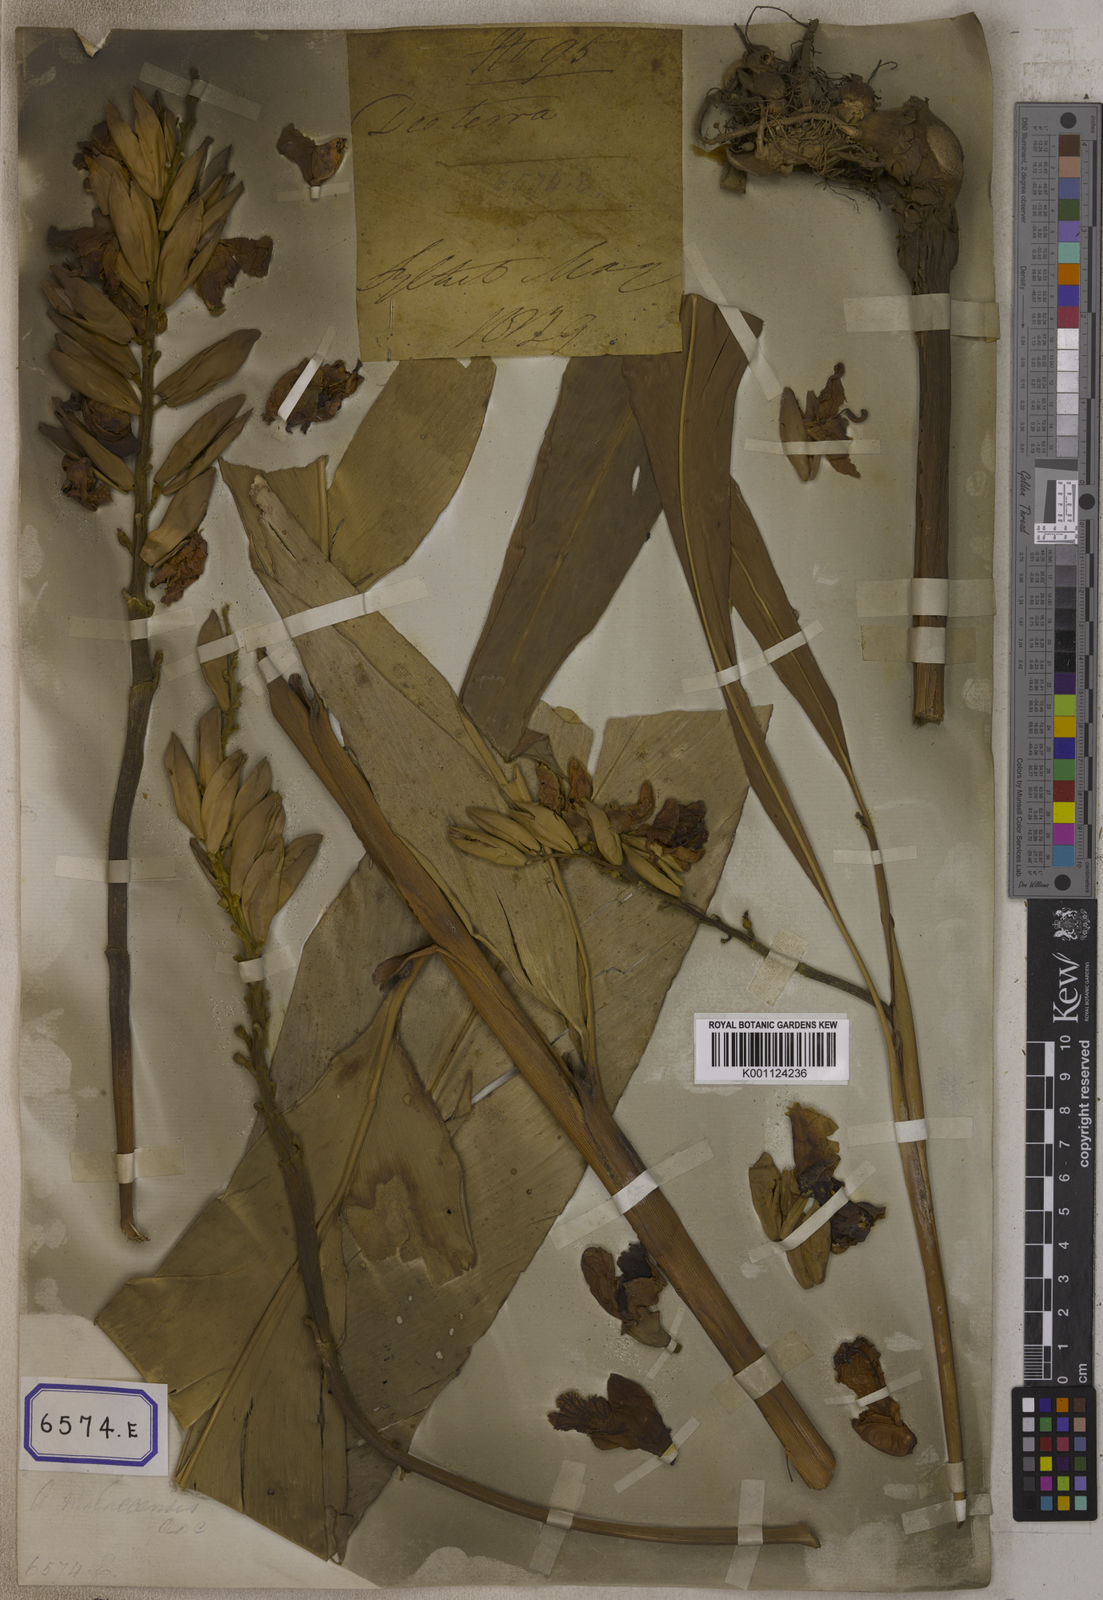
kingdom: Plantae
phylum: Tracheophyta
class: Liliopsida
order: Zingiberales
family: Zingiberaceae
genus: Alpinia
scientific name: Alpinia nutans
